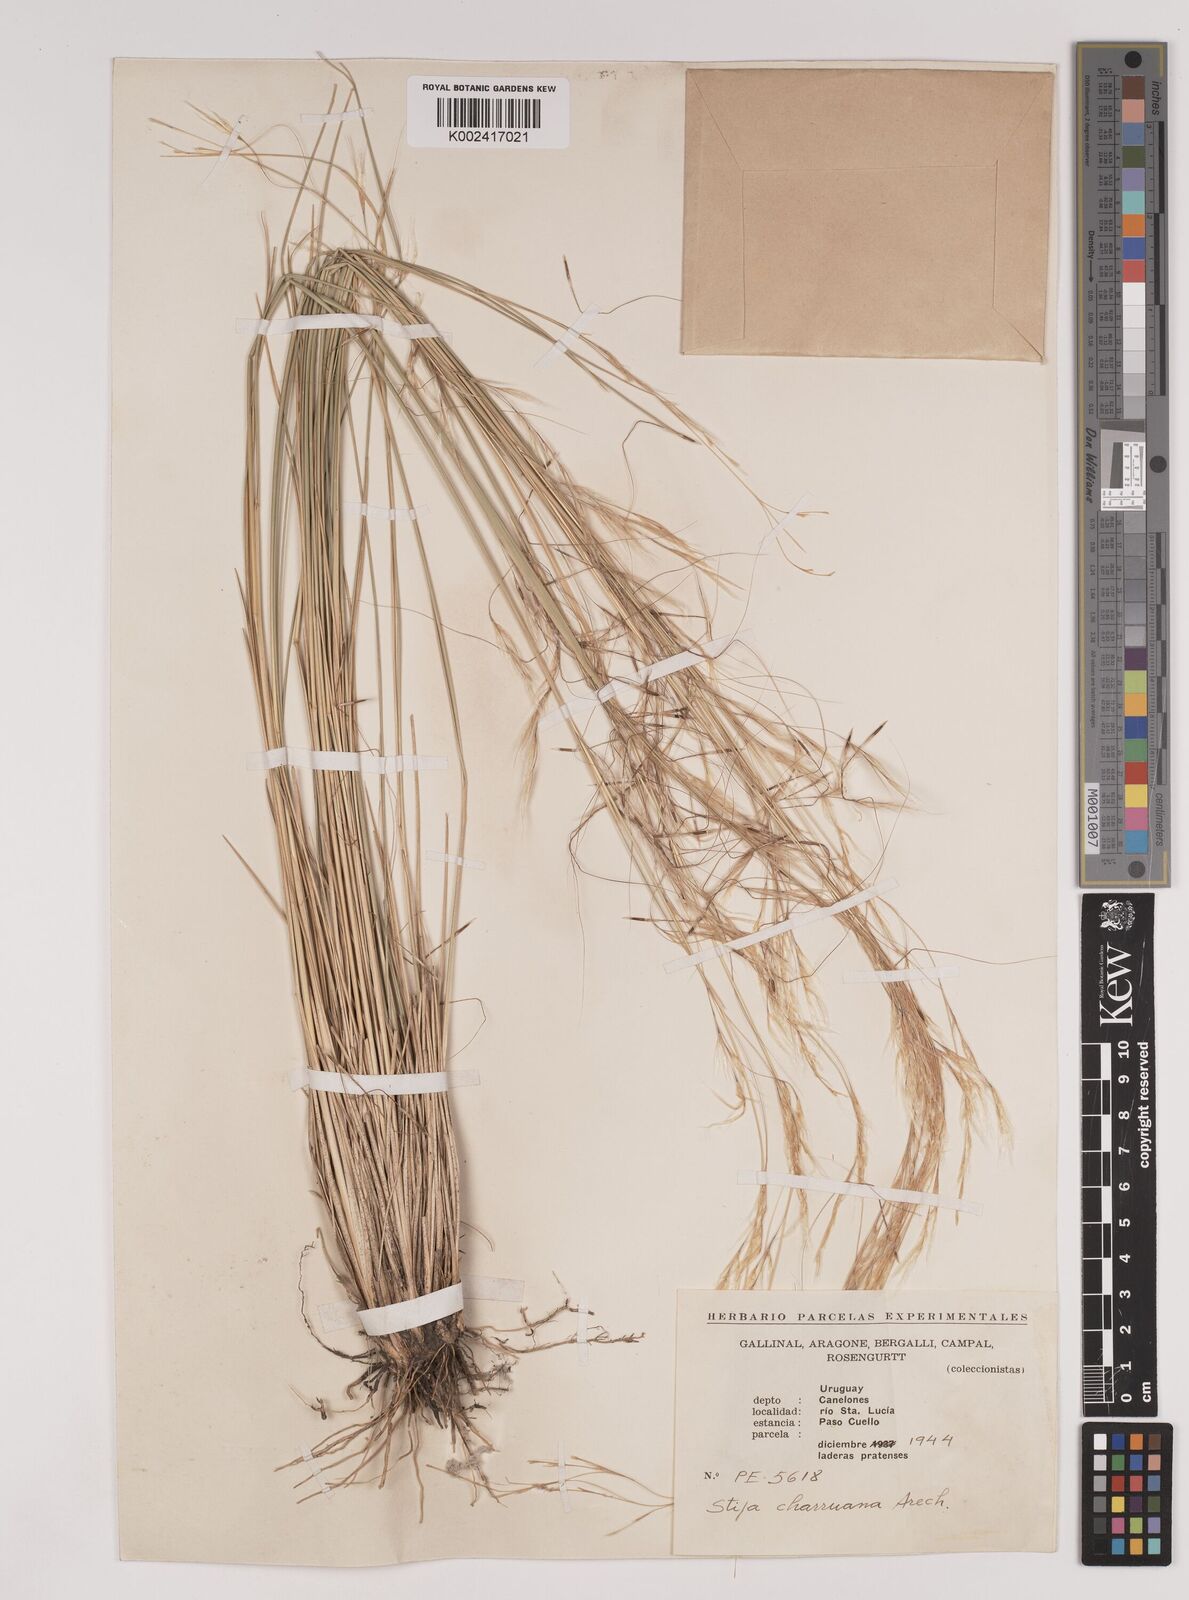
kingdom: Plantae
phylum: Tracheophyta
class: Liliopsida
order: Poales
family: Poaceae
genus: Stipa
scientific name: Stipa neaei
